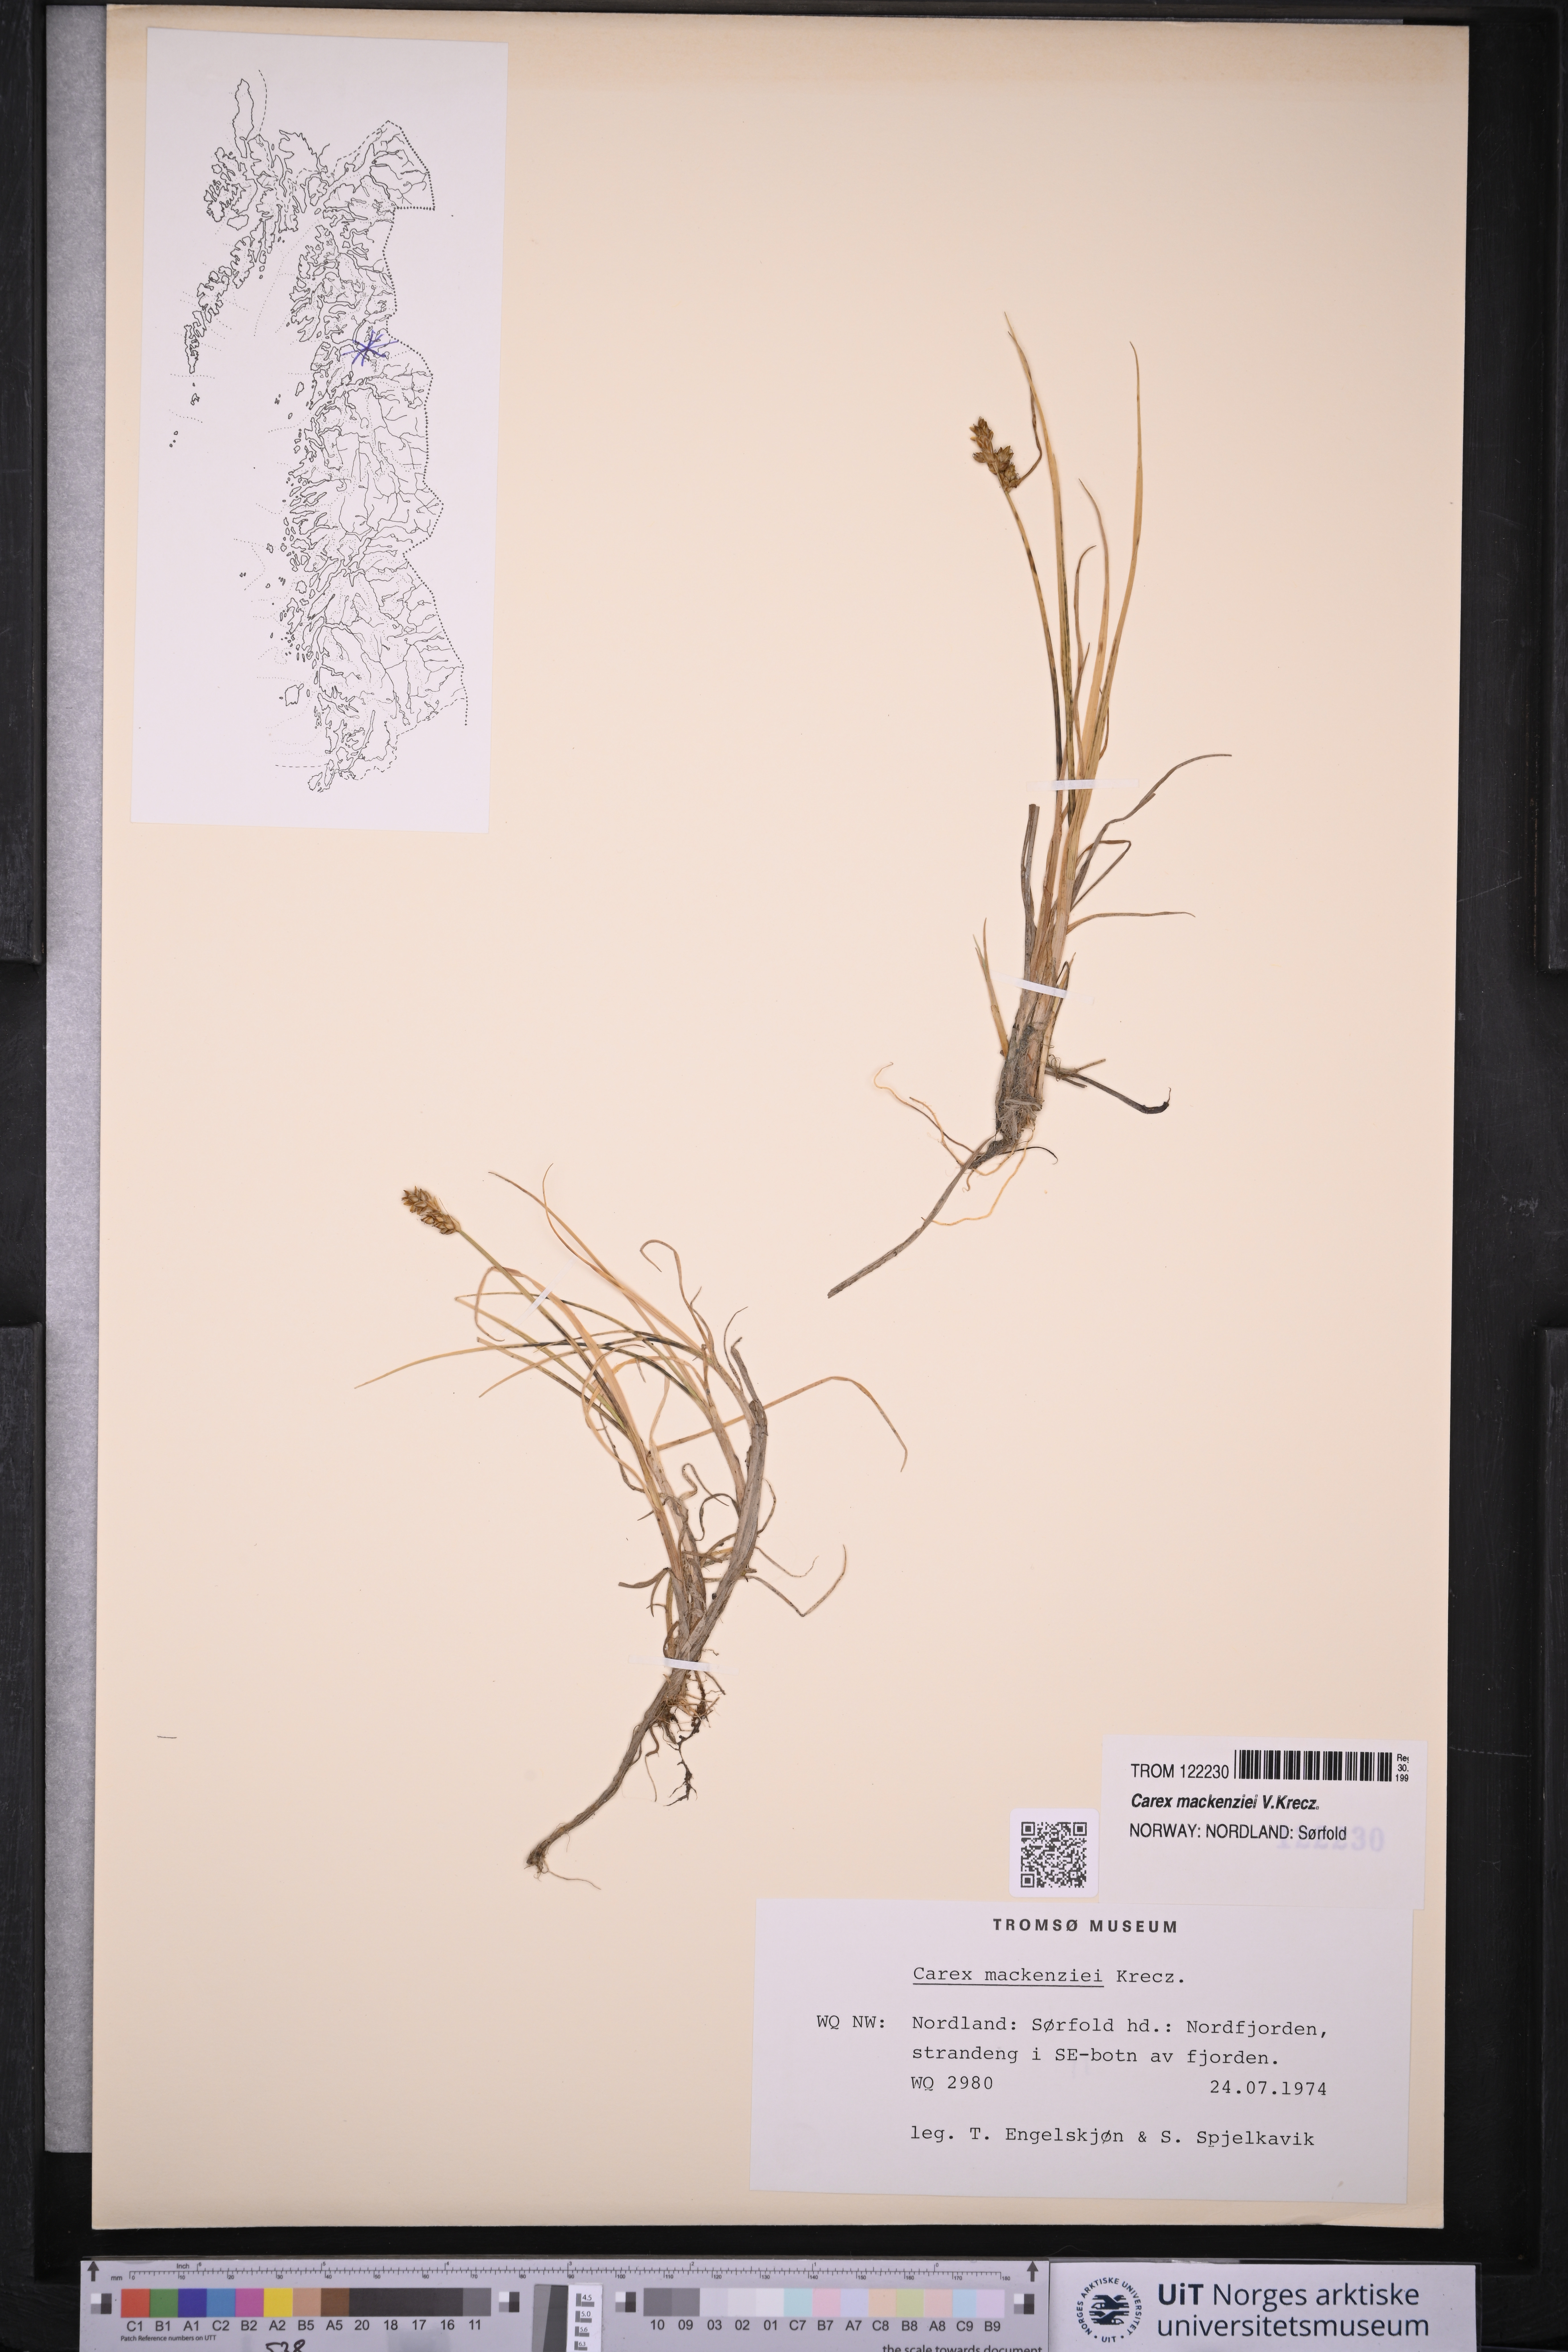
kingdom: Plantae
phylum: Tracheophyta
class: Liliopsida
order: Poales
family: Cyperaceae
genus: Carex
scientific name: Carex mackenziei
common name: Mackenzie's sedge
